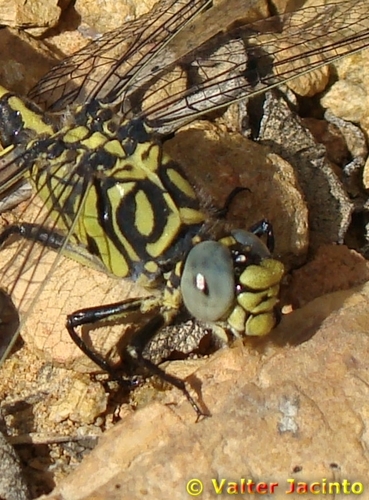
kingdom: Animalia
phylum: Arthropoda
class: Insecta
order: Odonata
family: Gomphidae
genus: Onychogomphus
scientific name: Onychogomphus forcipatus
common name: Small pincertail
